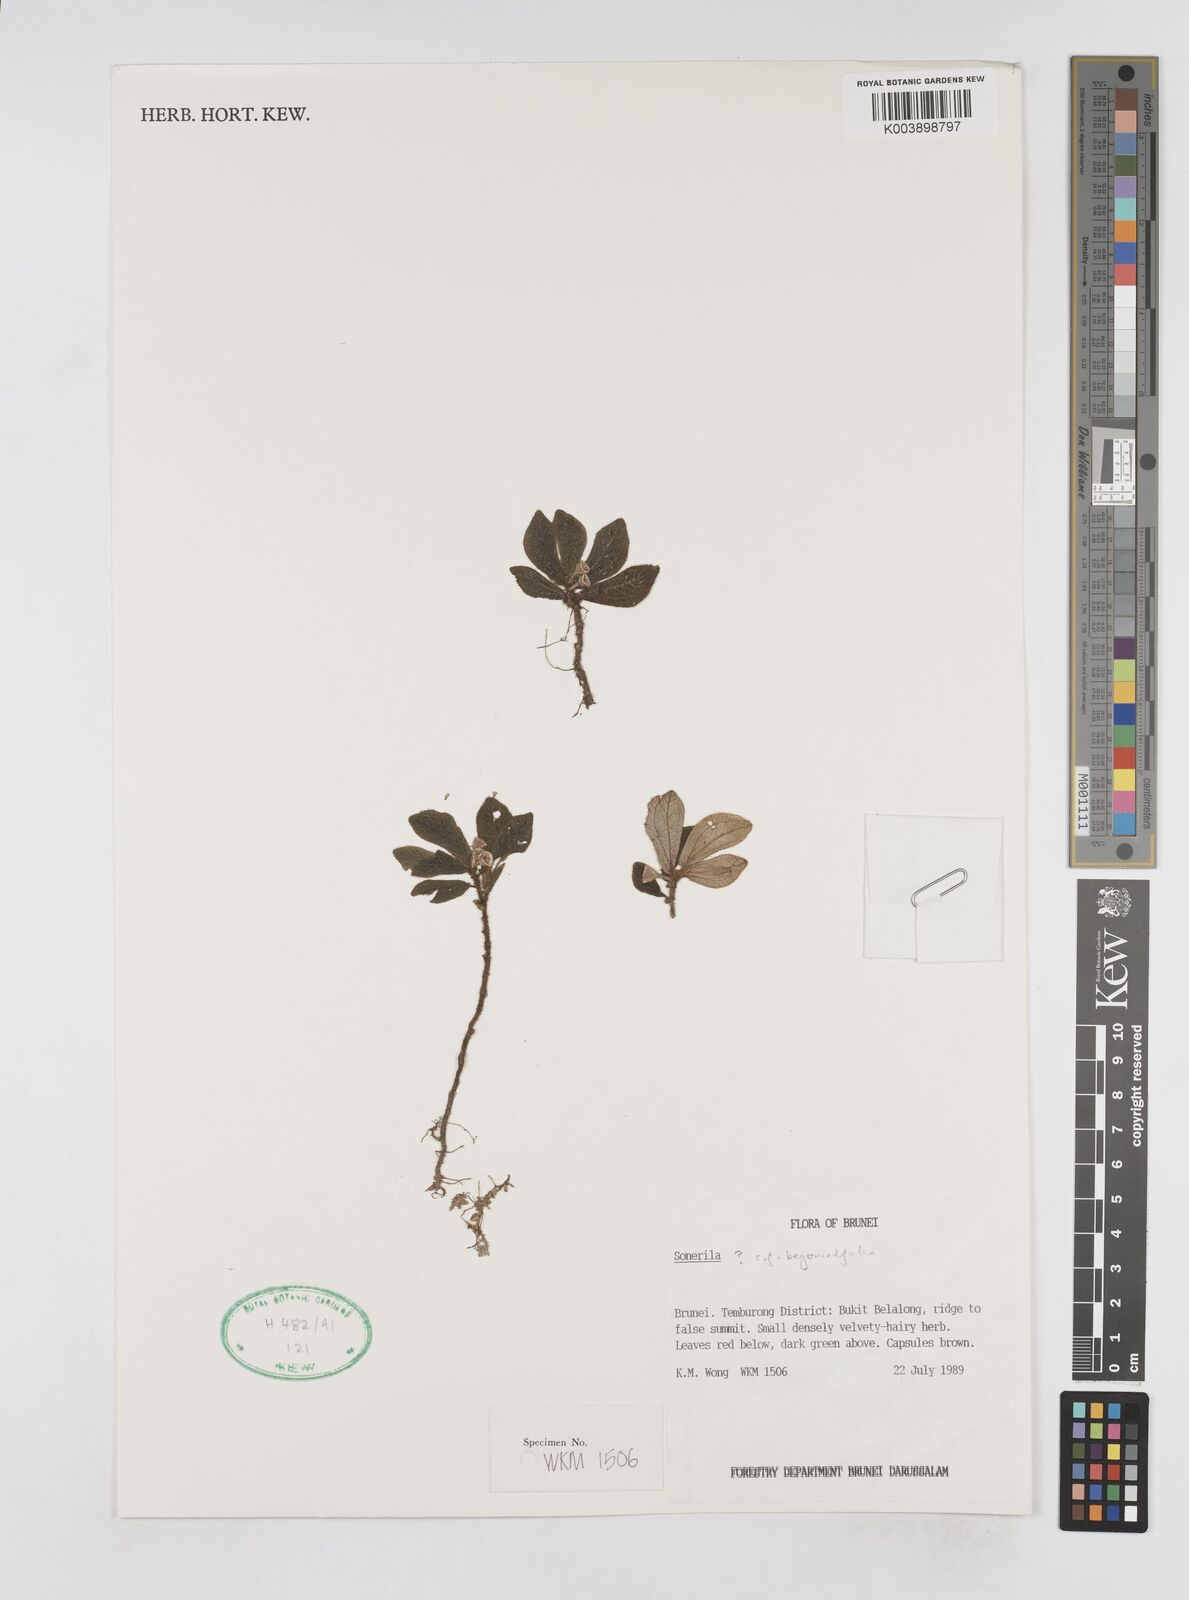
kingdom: Plantae
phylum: Tracheophyta
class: Magnoliopsida
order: Myrtales
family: Melastomataceae
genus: Sonerila
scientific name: Sonerila
